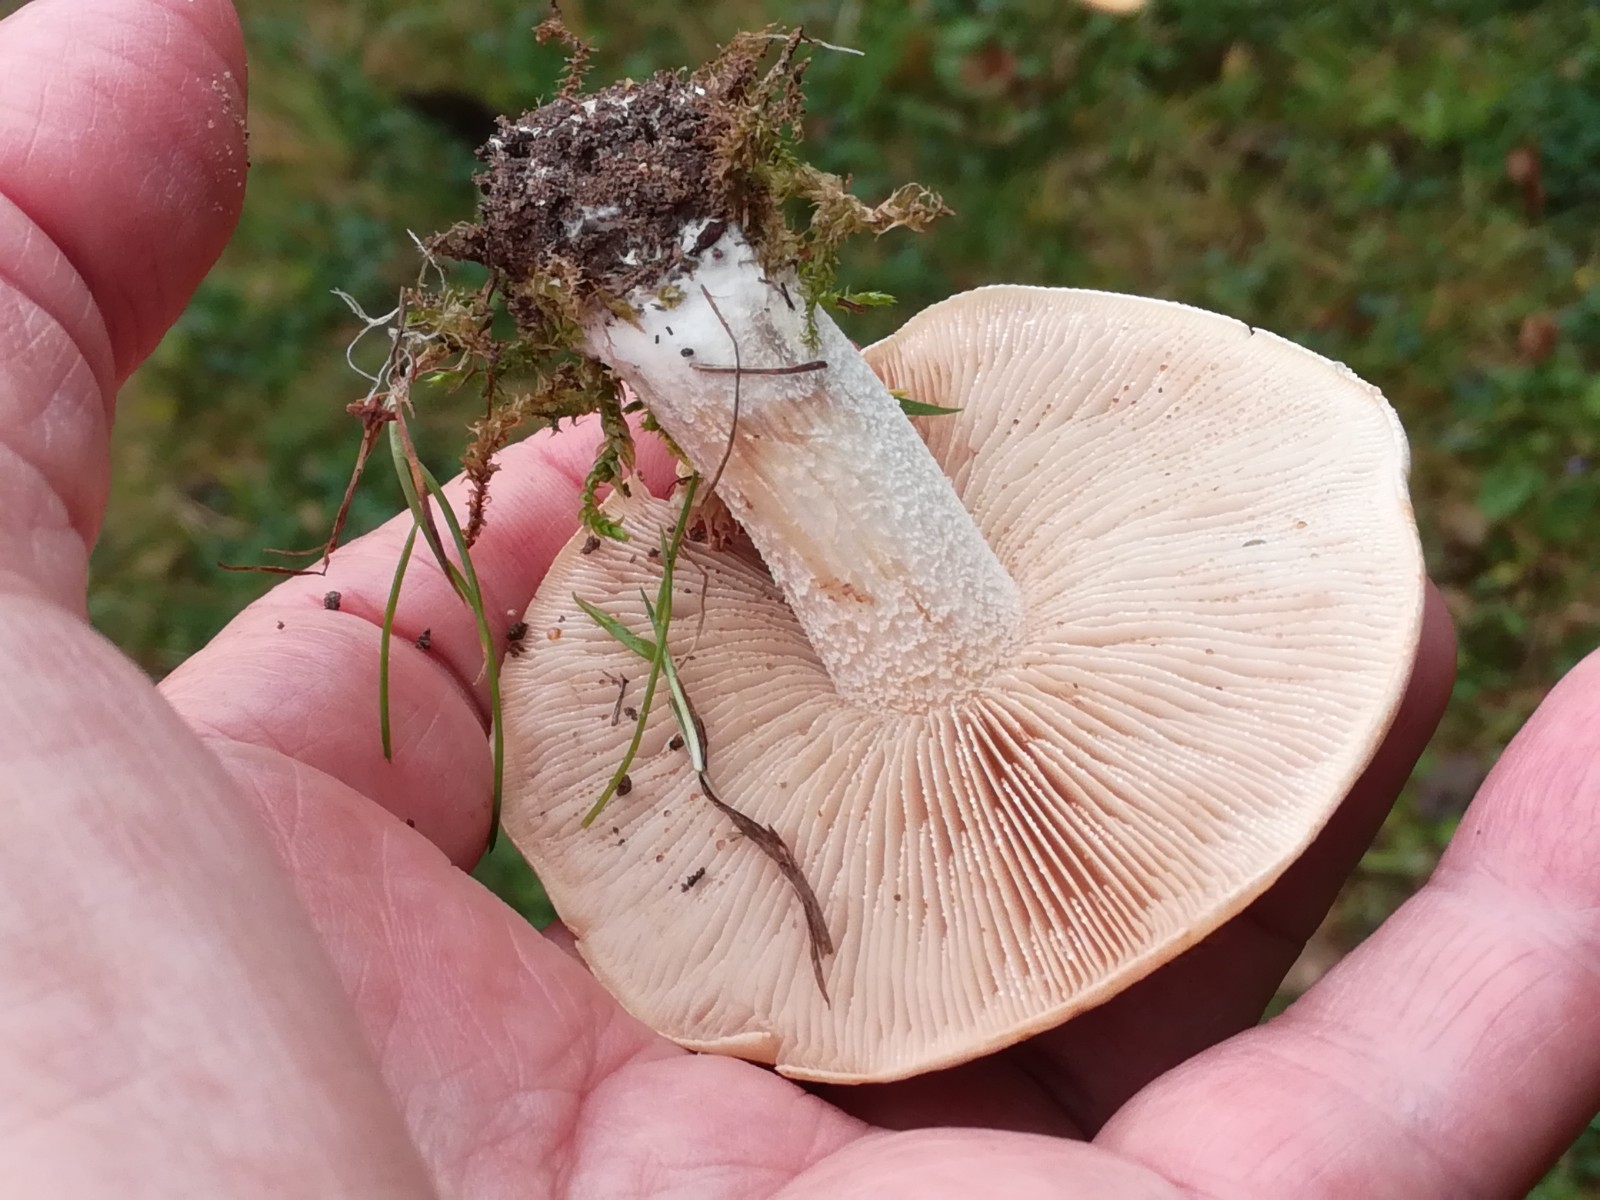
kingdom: Fungi
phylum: Basidiomycota
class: Agaricomycetes
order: Agaricales
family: Hymenogastraceae
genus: Hebeloma
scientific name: Hebeloma
